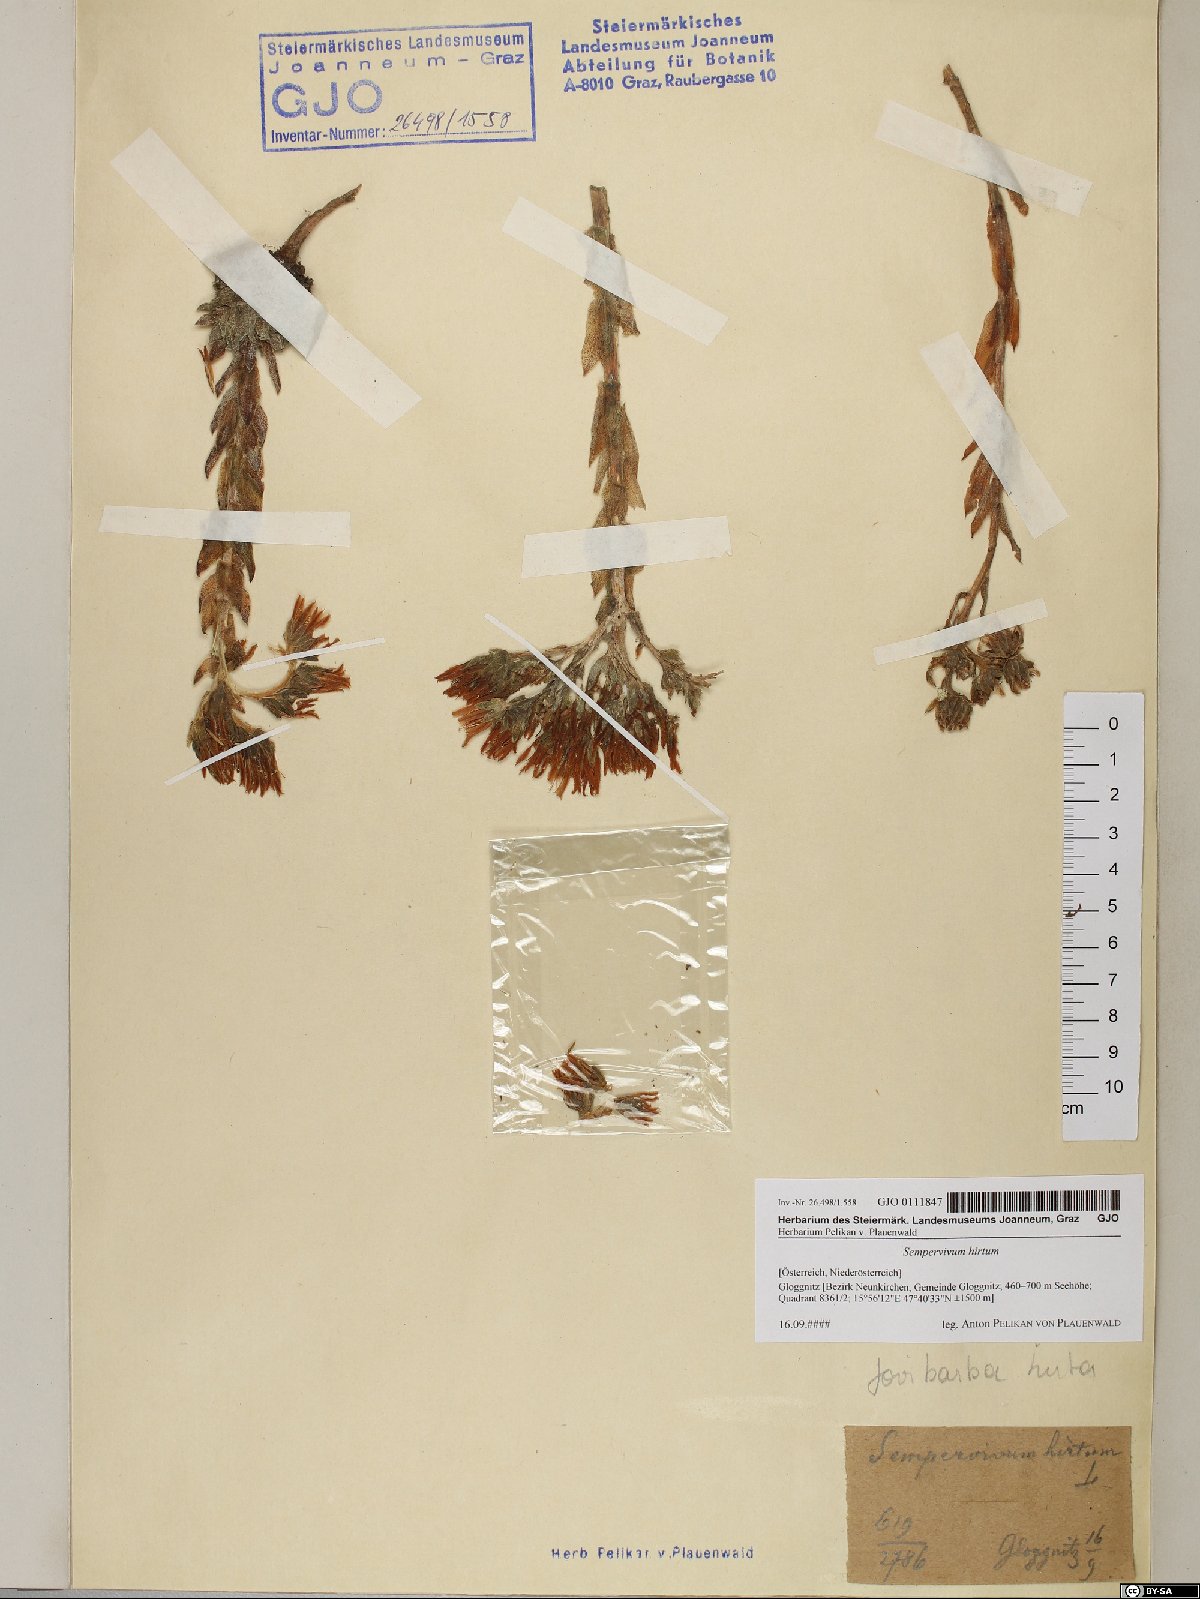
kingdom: Plantae
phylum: Tracheophyta
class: Magnoliopsida
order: Saxifragales
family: Crassulaceae
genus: Sempervivum
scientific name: Sempervivum globiferum
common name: Rolling hen-and-chicks
